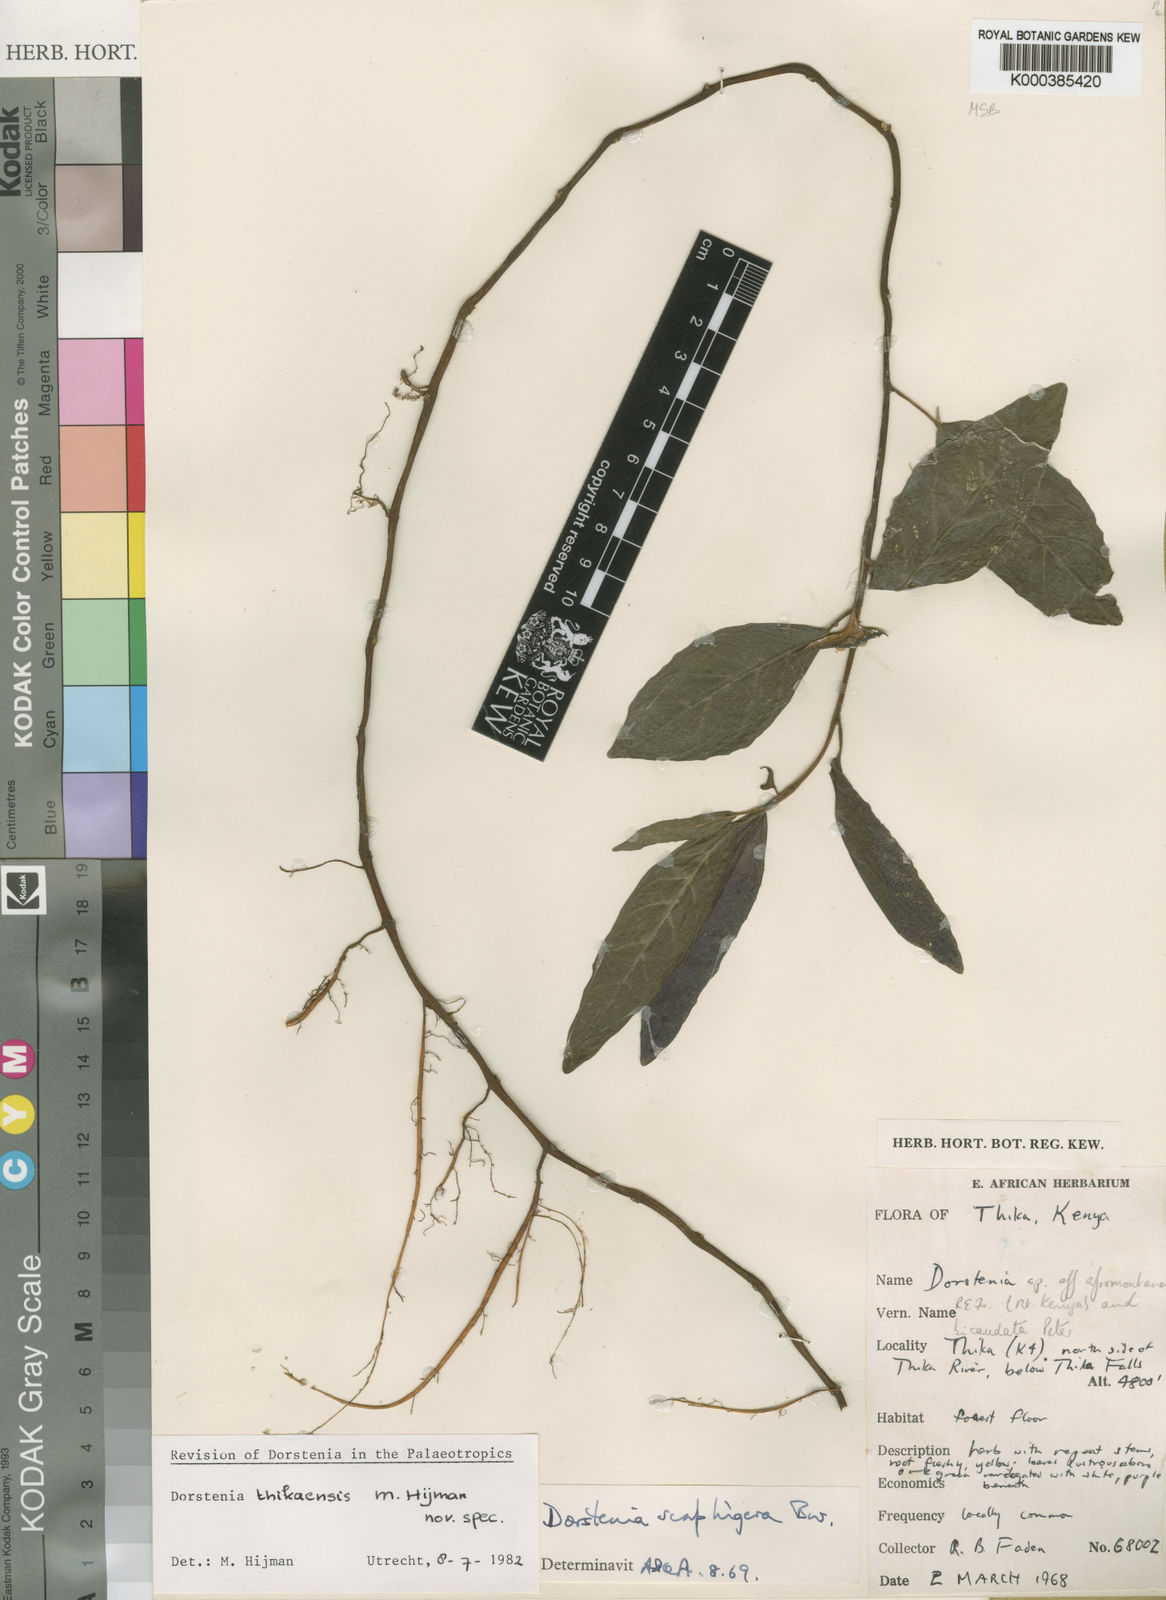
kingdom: Plantae
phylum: Tracheophyta
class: Magnoliopsida
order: Rosales
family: Moraceae
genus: Dorstenia
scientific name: Dorstenia thikaensis
